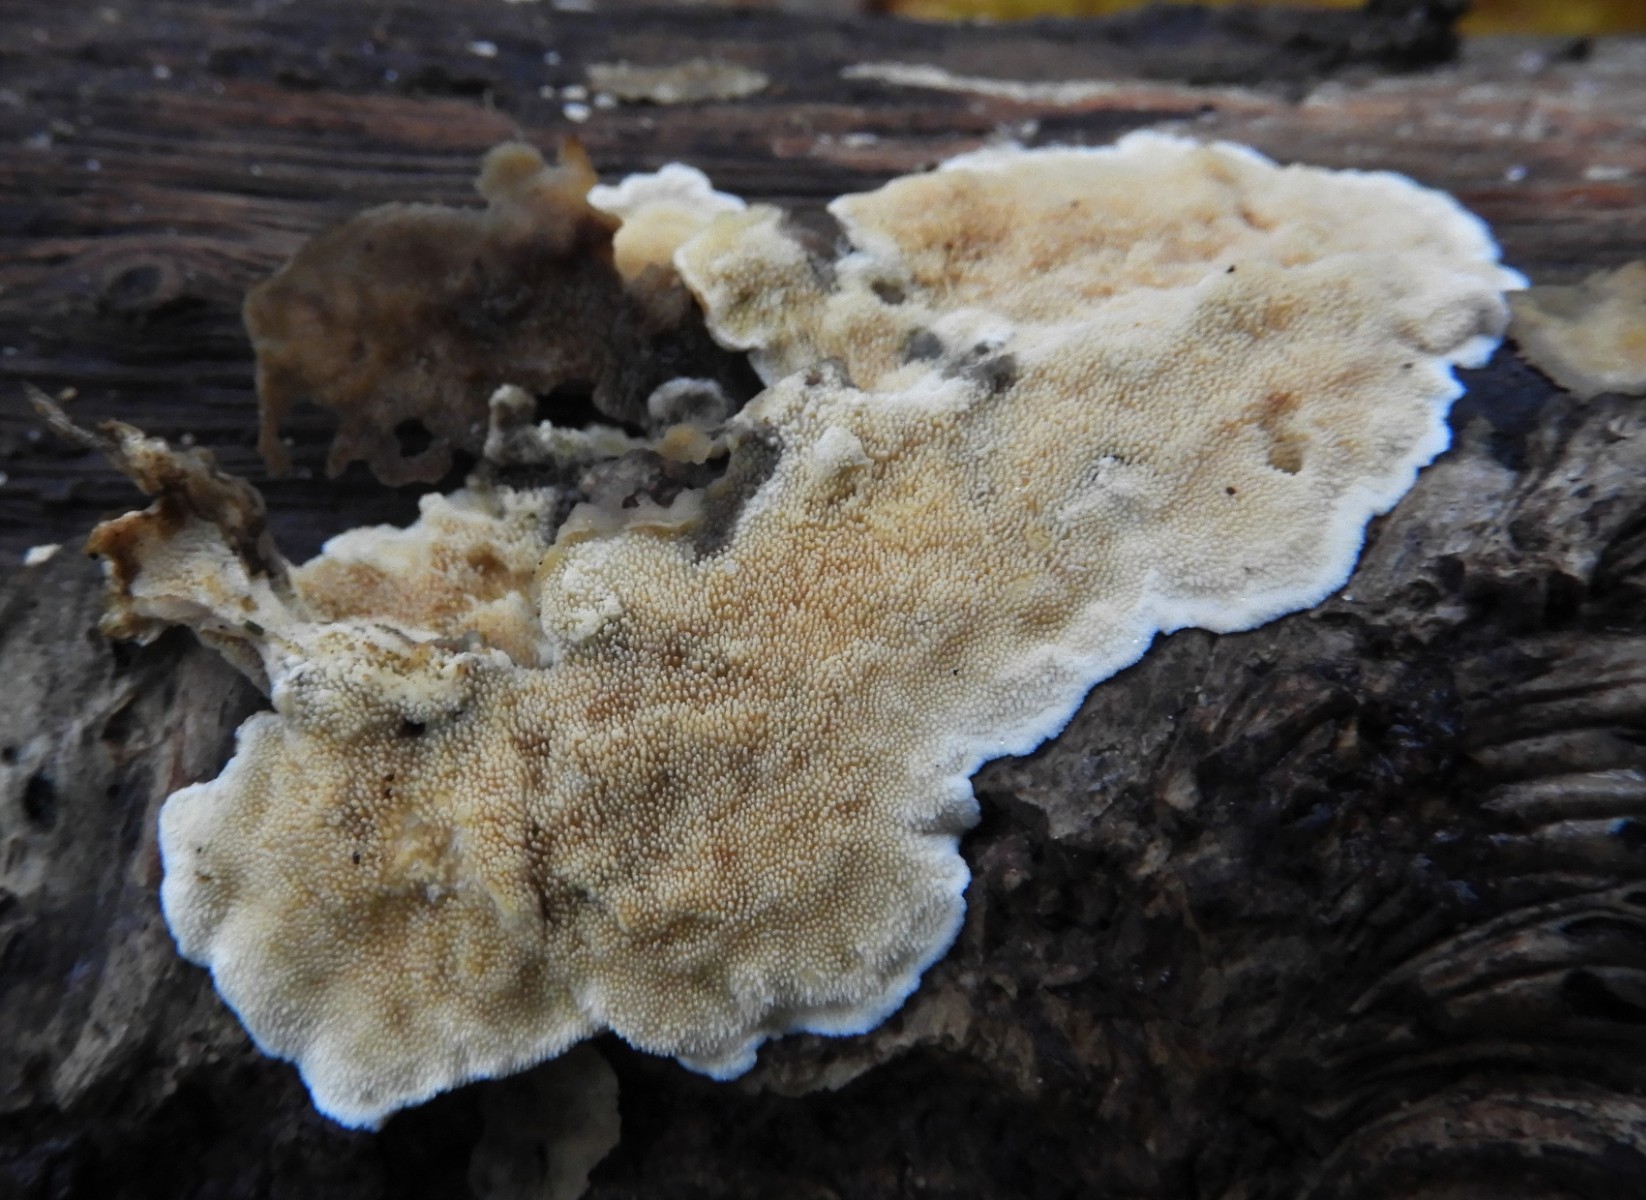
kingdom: Fungi
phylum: Basidiomycota
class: Agaricomycetes
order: Polyporales
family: Steccherinaceae
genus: Steccherinum
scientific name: Steccherinum ochraceum
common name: almindelig skønpig
